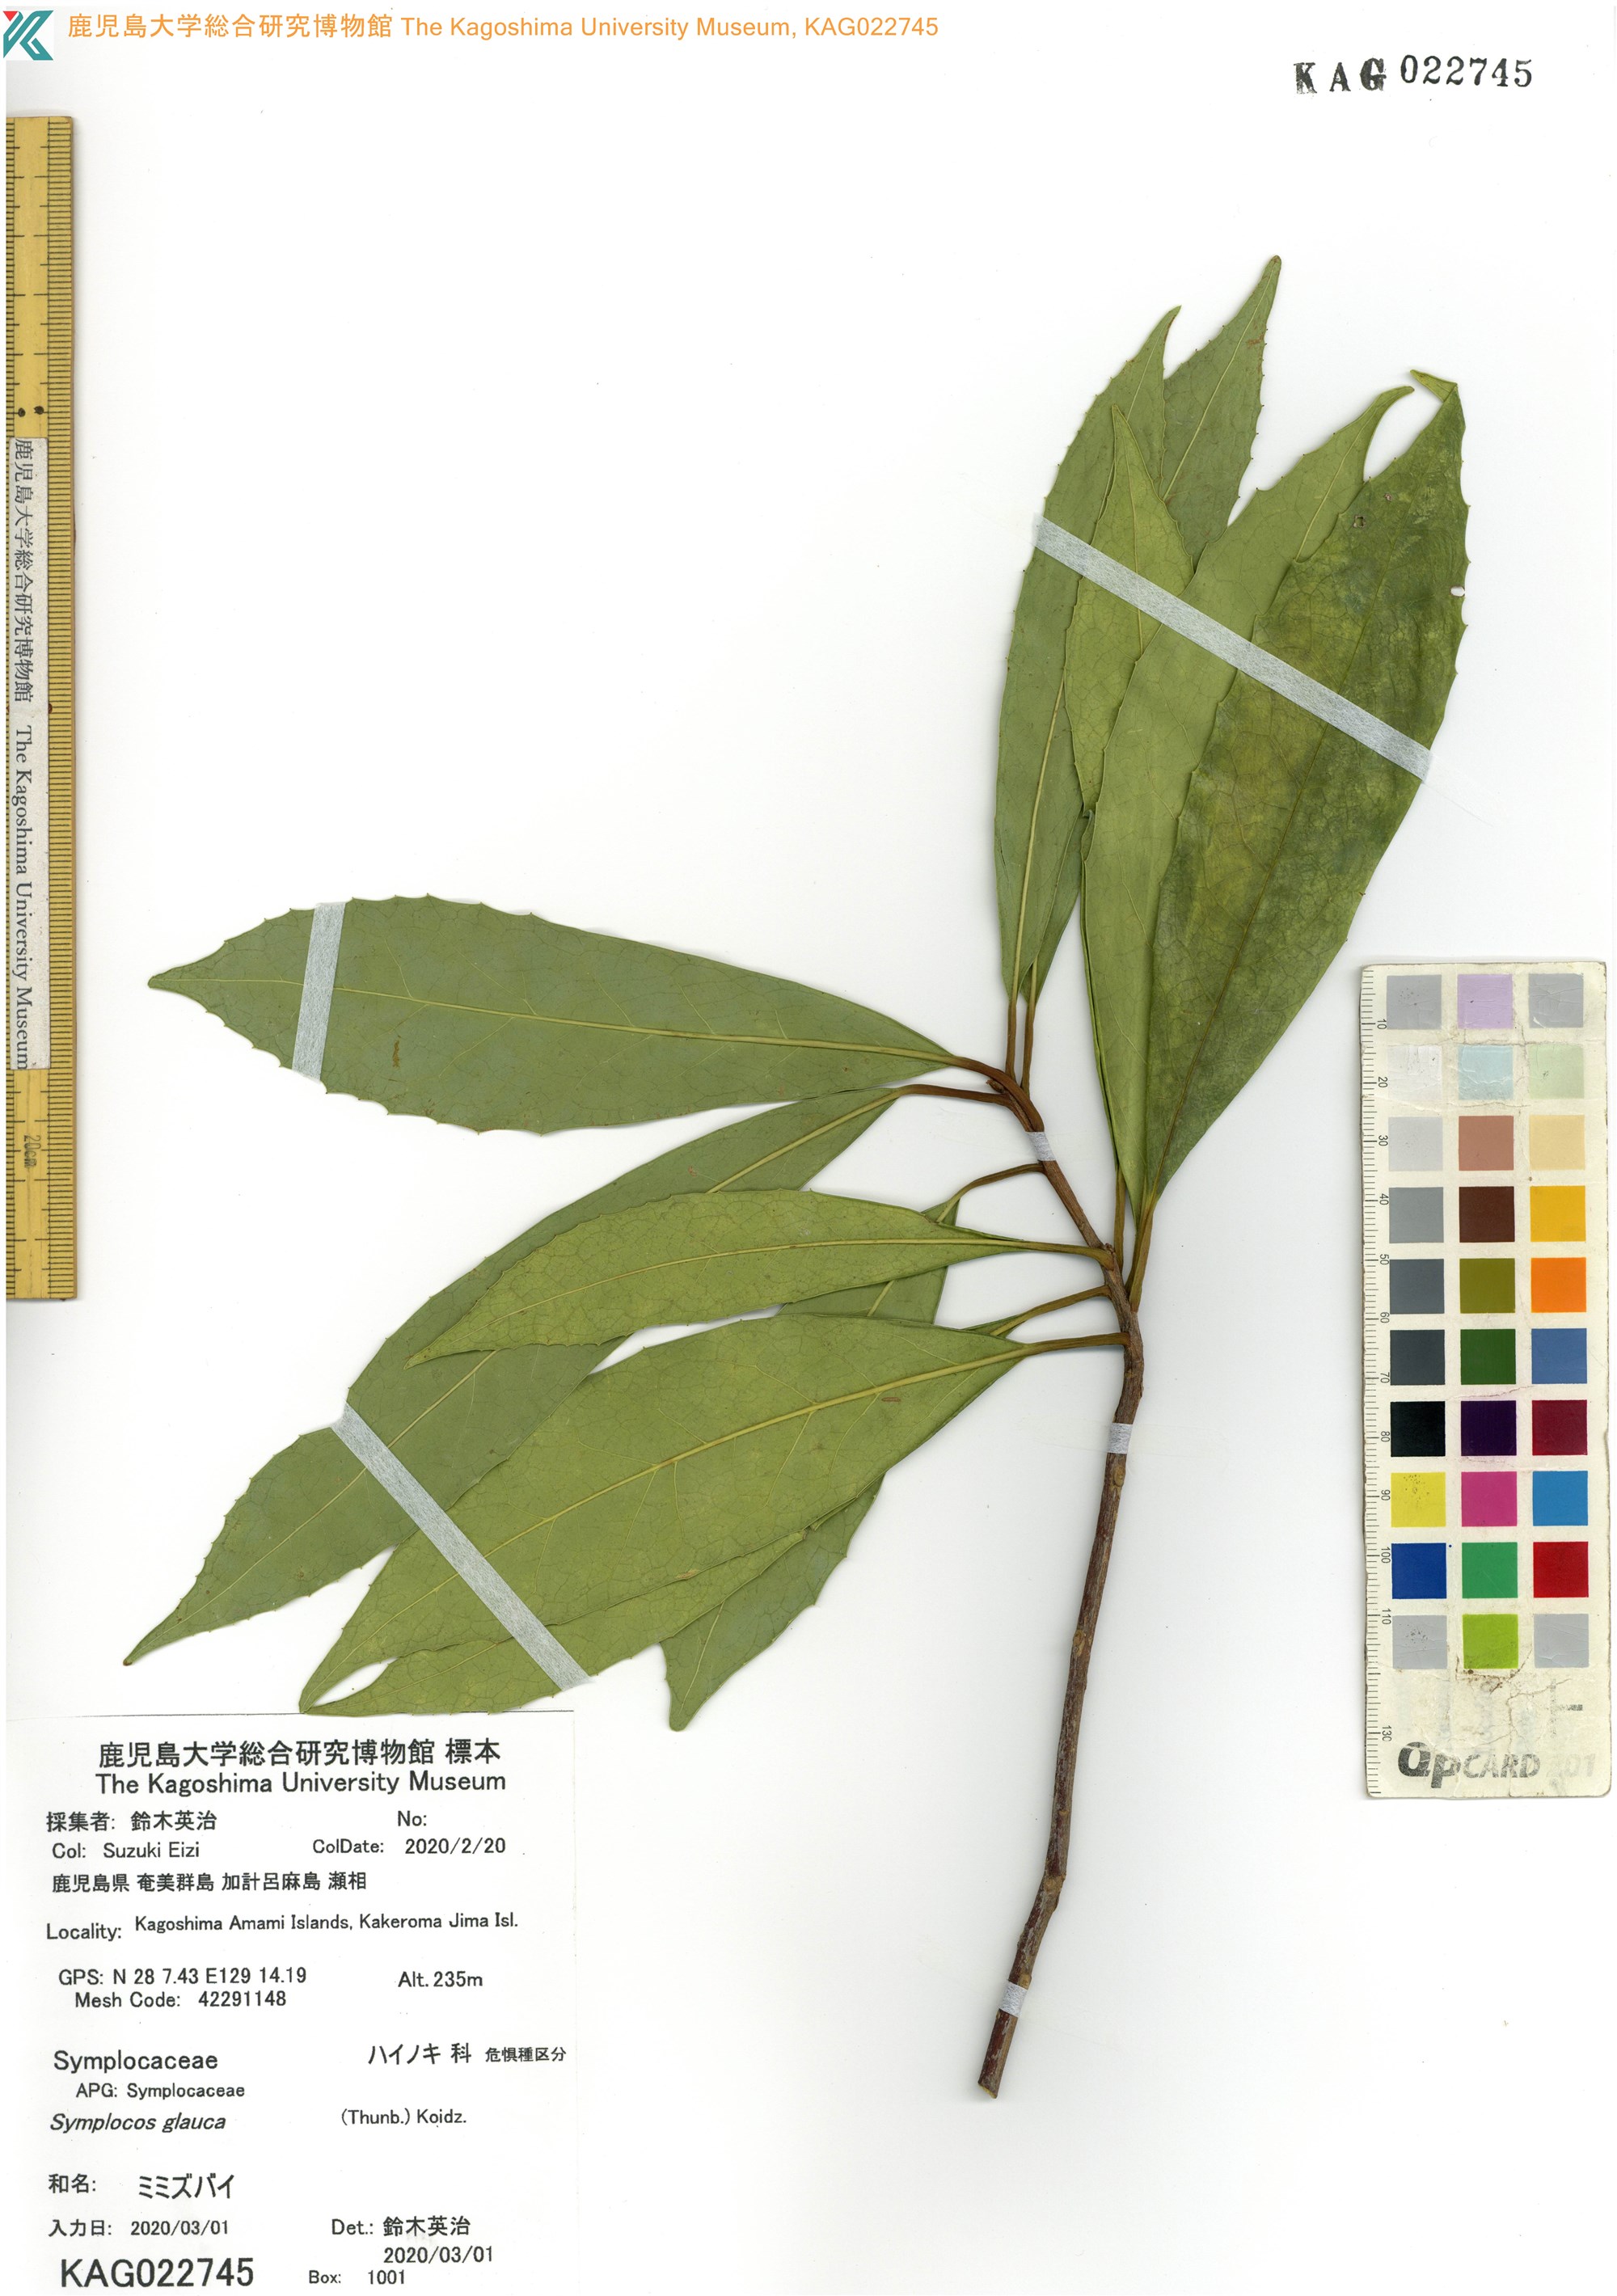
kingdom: Plantae
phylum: Tracheophyta
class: Magnoliopsida
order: Ericales
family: Symplocaceae
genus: Symplocos
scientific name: Symplocos glauca
